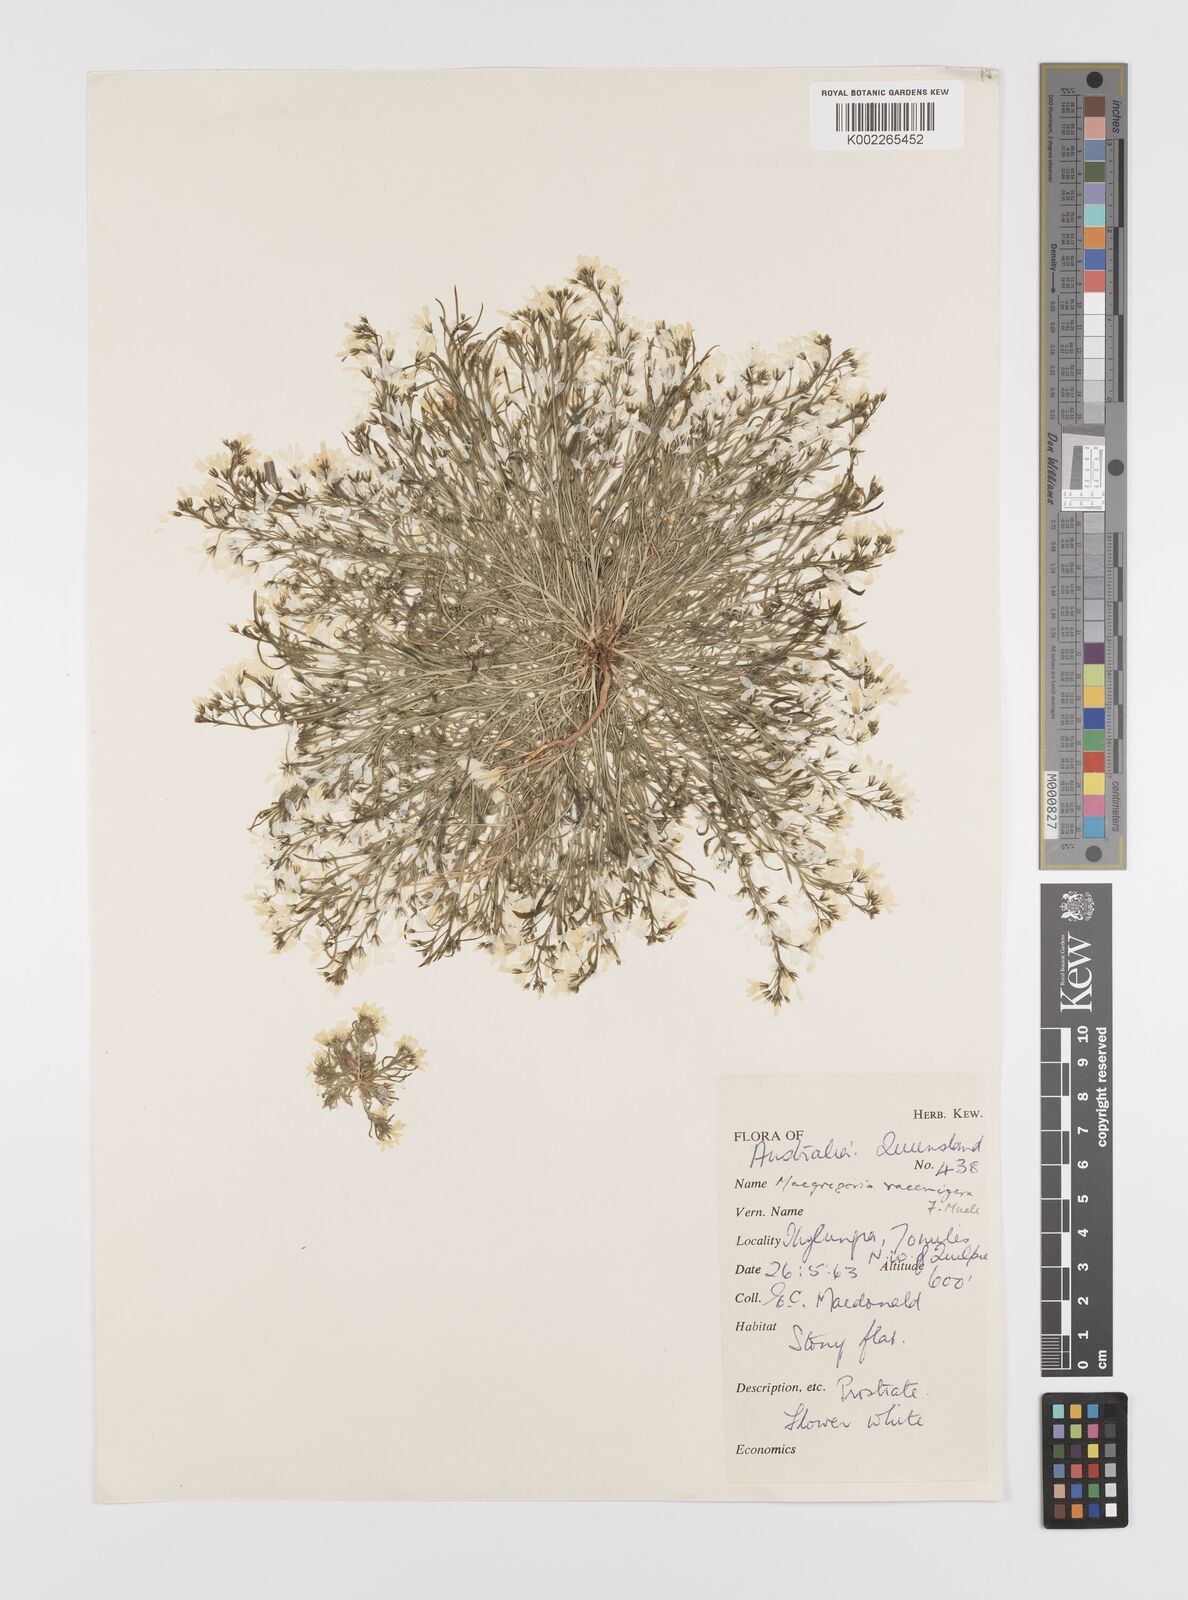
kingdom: Plantae
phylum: Tracheophyta
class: Magnoliopsida
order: Celastrales
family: Celastraceae
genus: Macgregoria
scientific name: Macgregoria racemigera
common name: Carpet-of-snow
